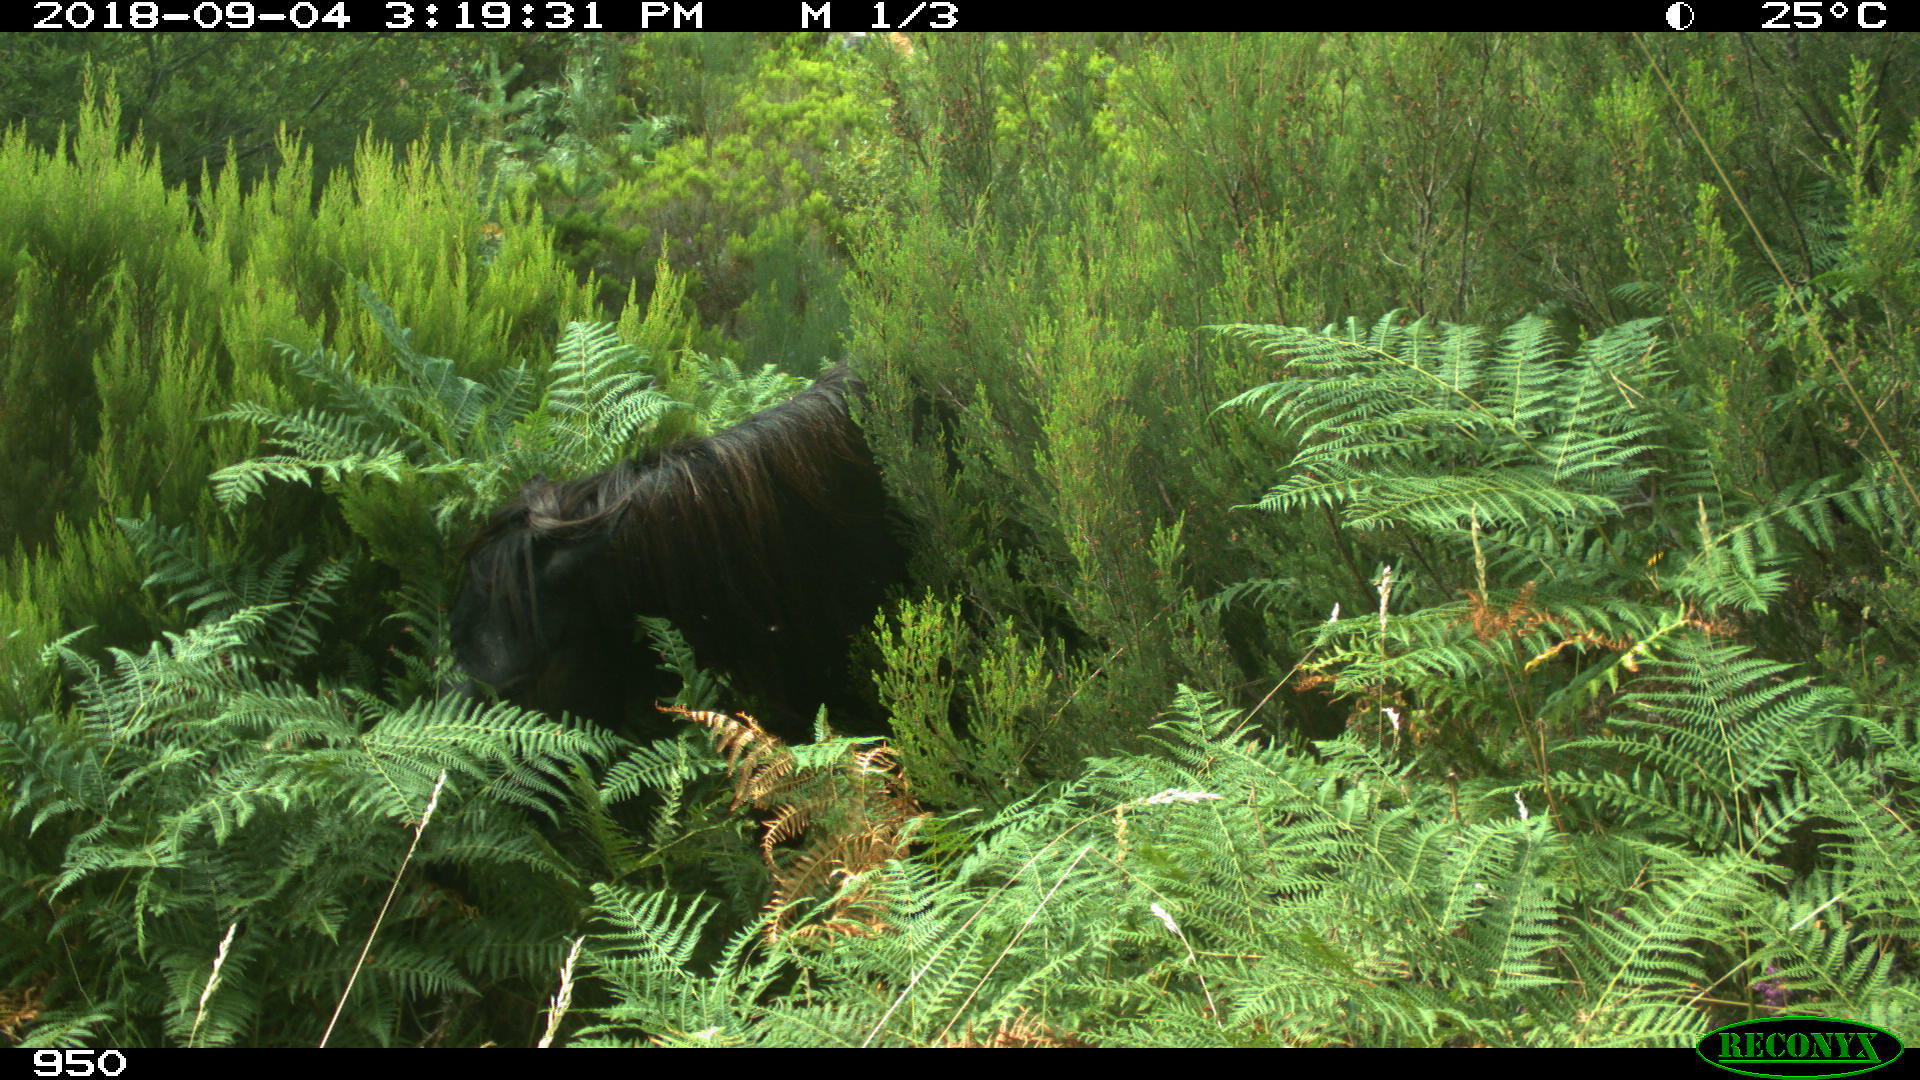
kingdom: Animalia
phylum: Chordata
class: Mammalia
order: Perissodactyla
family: Equidae
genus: Equus
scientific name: Equus caballus
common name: Horse
